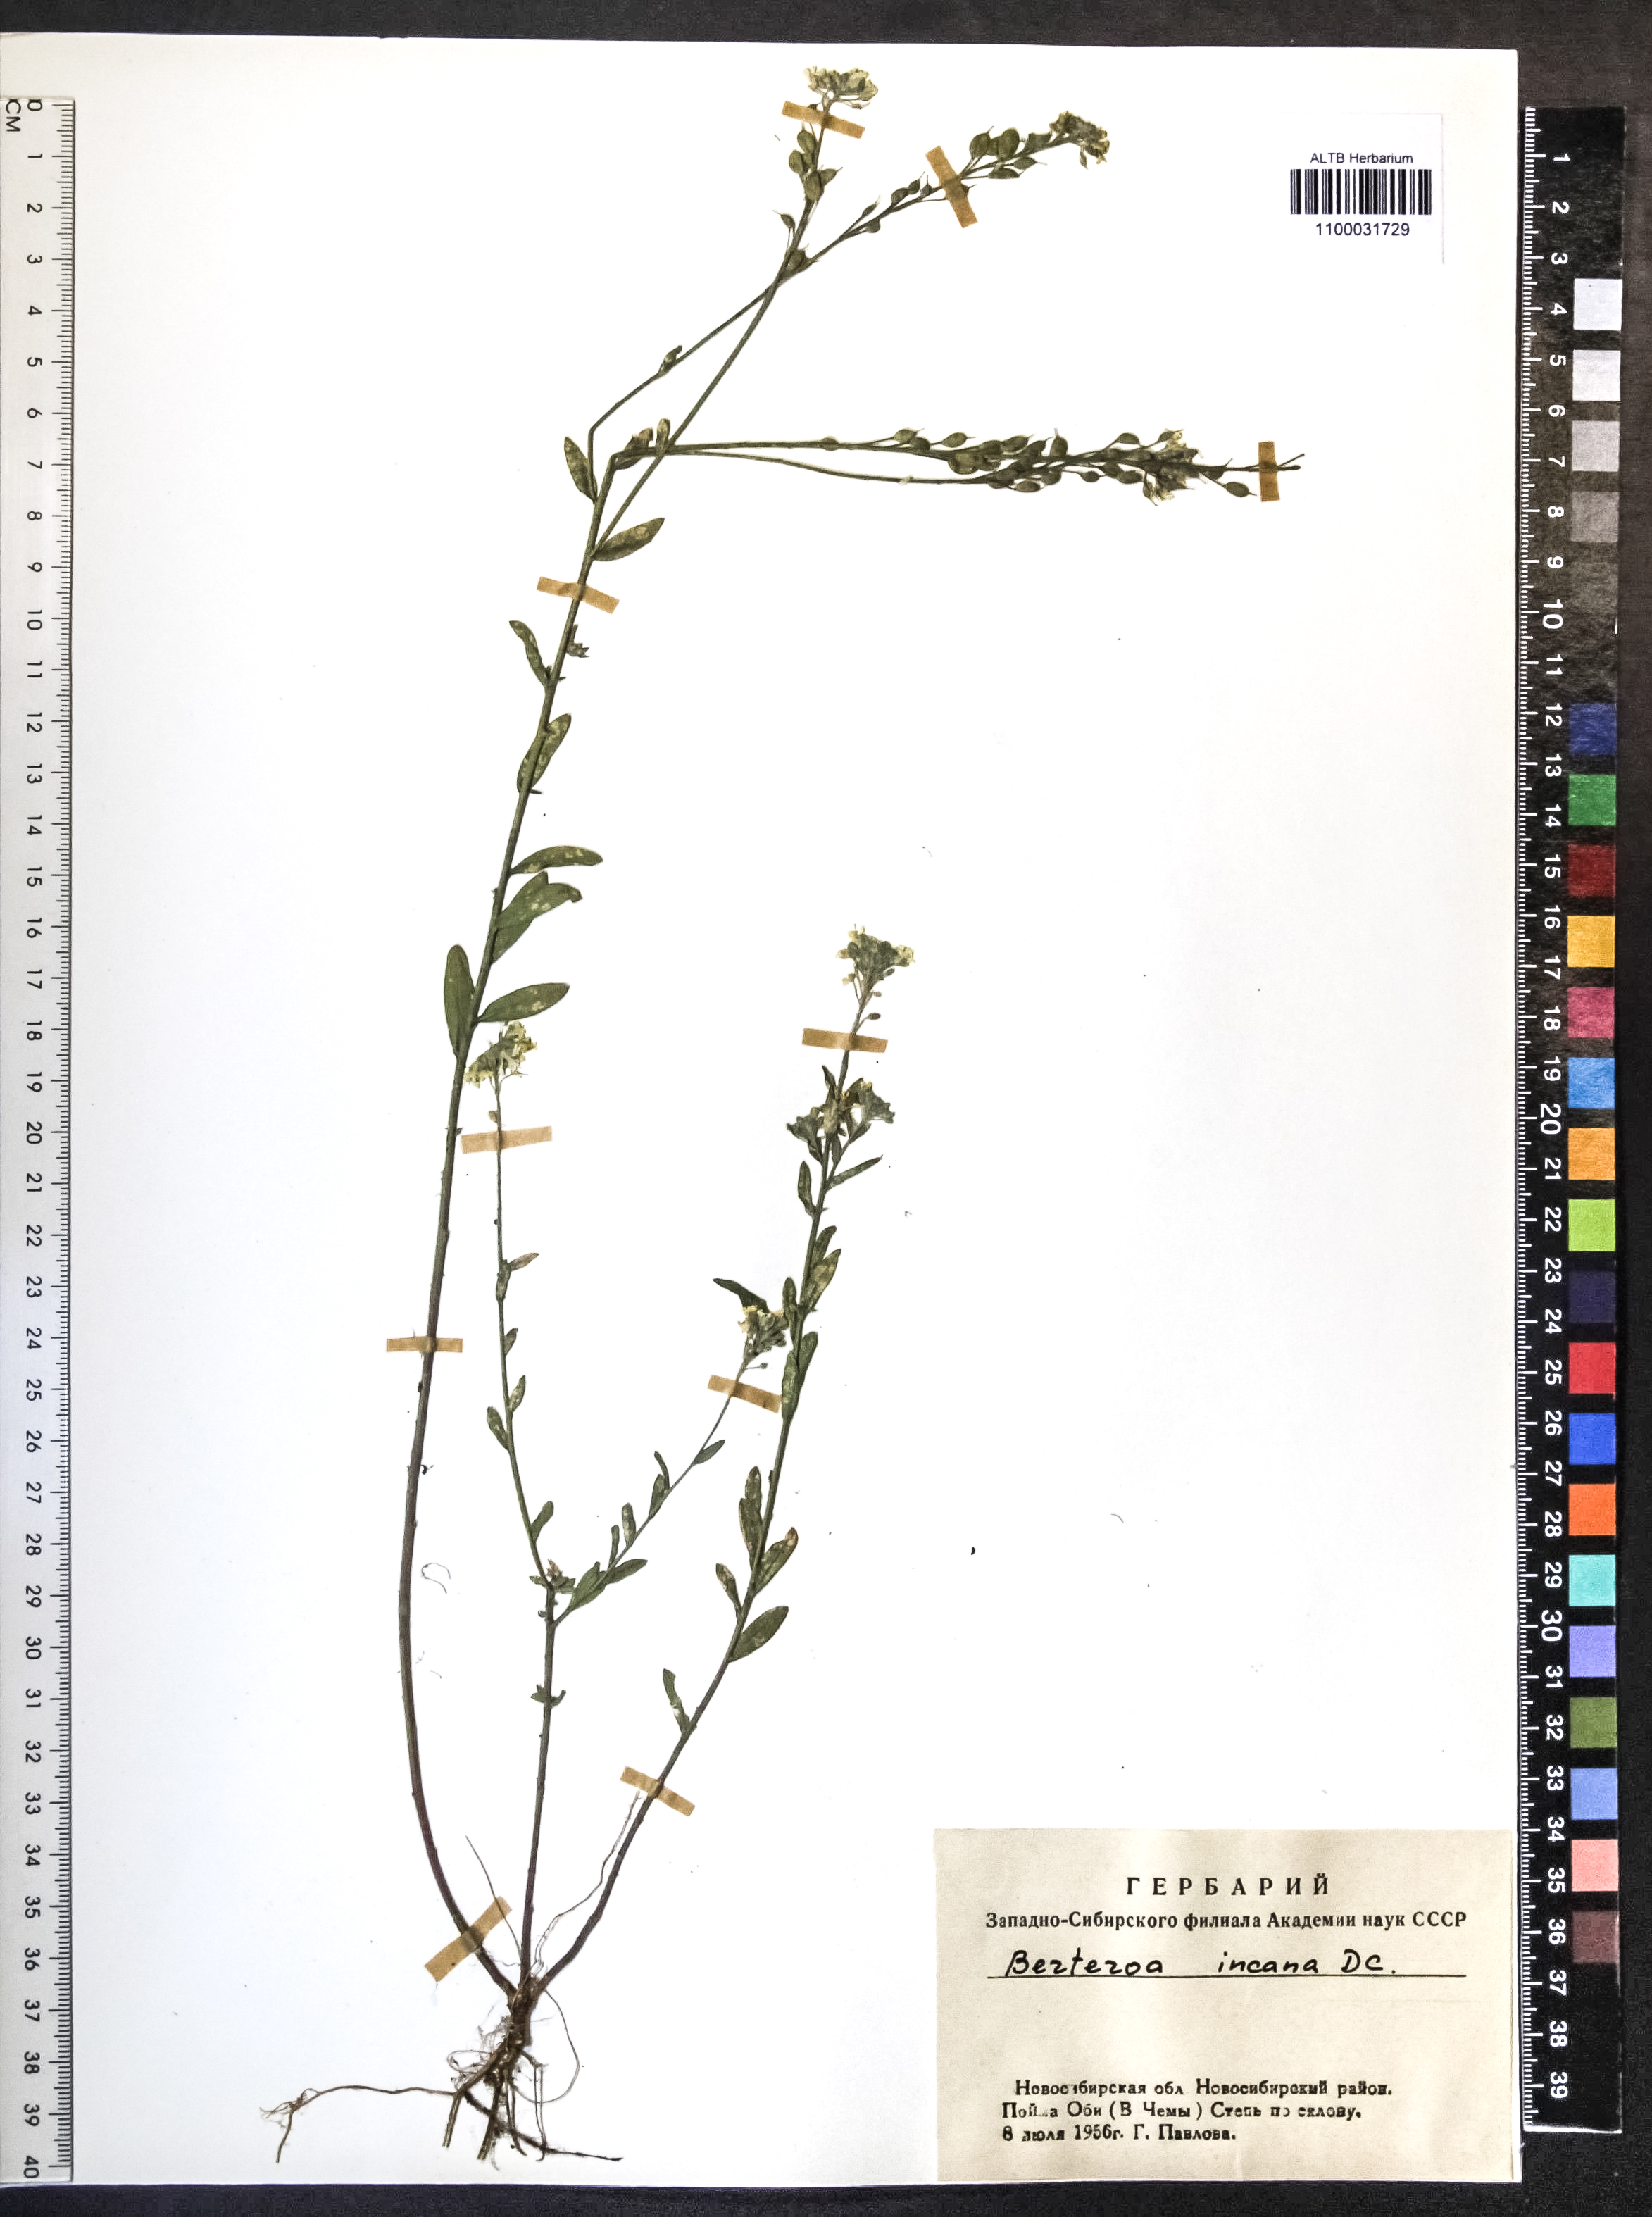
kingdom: Plantae
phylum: Tracheophyta
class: Magnoliopsida
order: Brassicales
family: Brassicaceae
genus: Berteroa
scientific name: Berteroa incana
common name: Hoary alison
